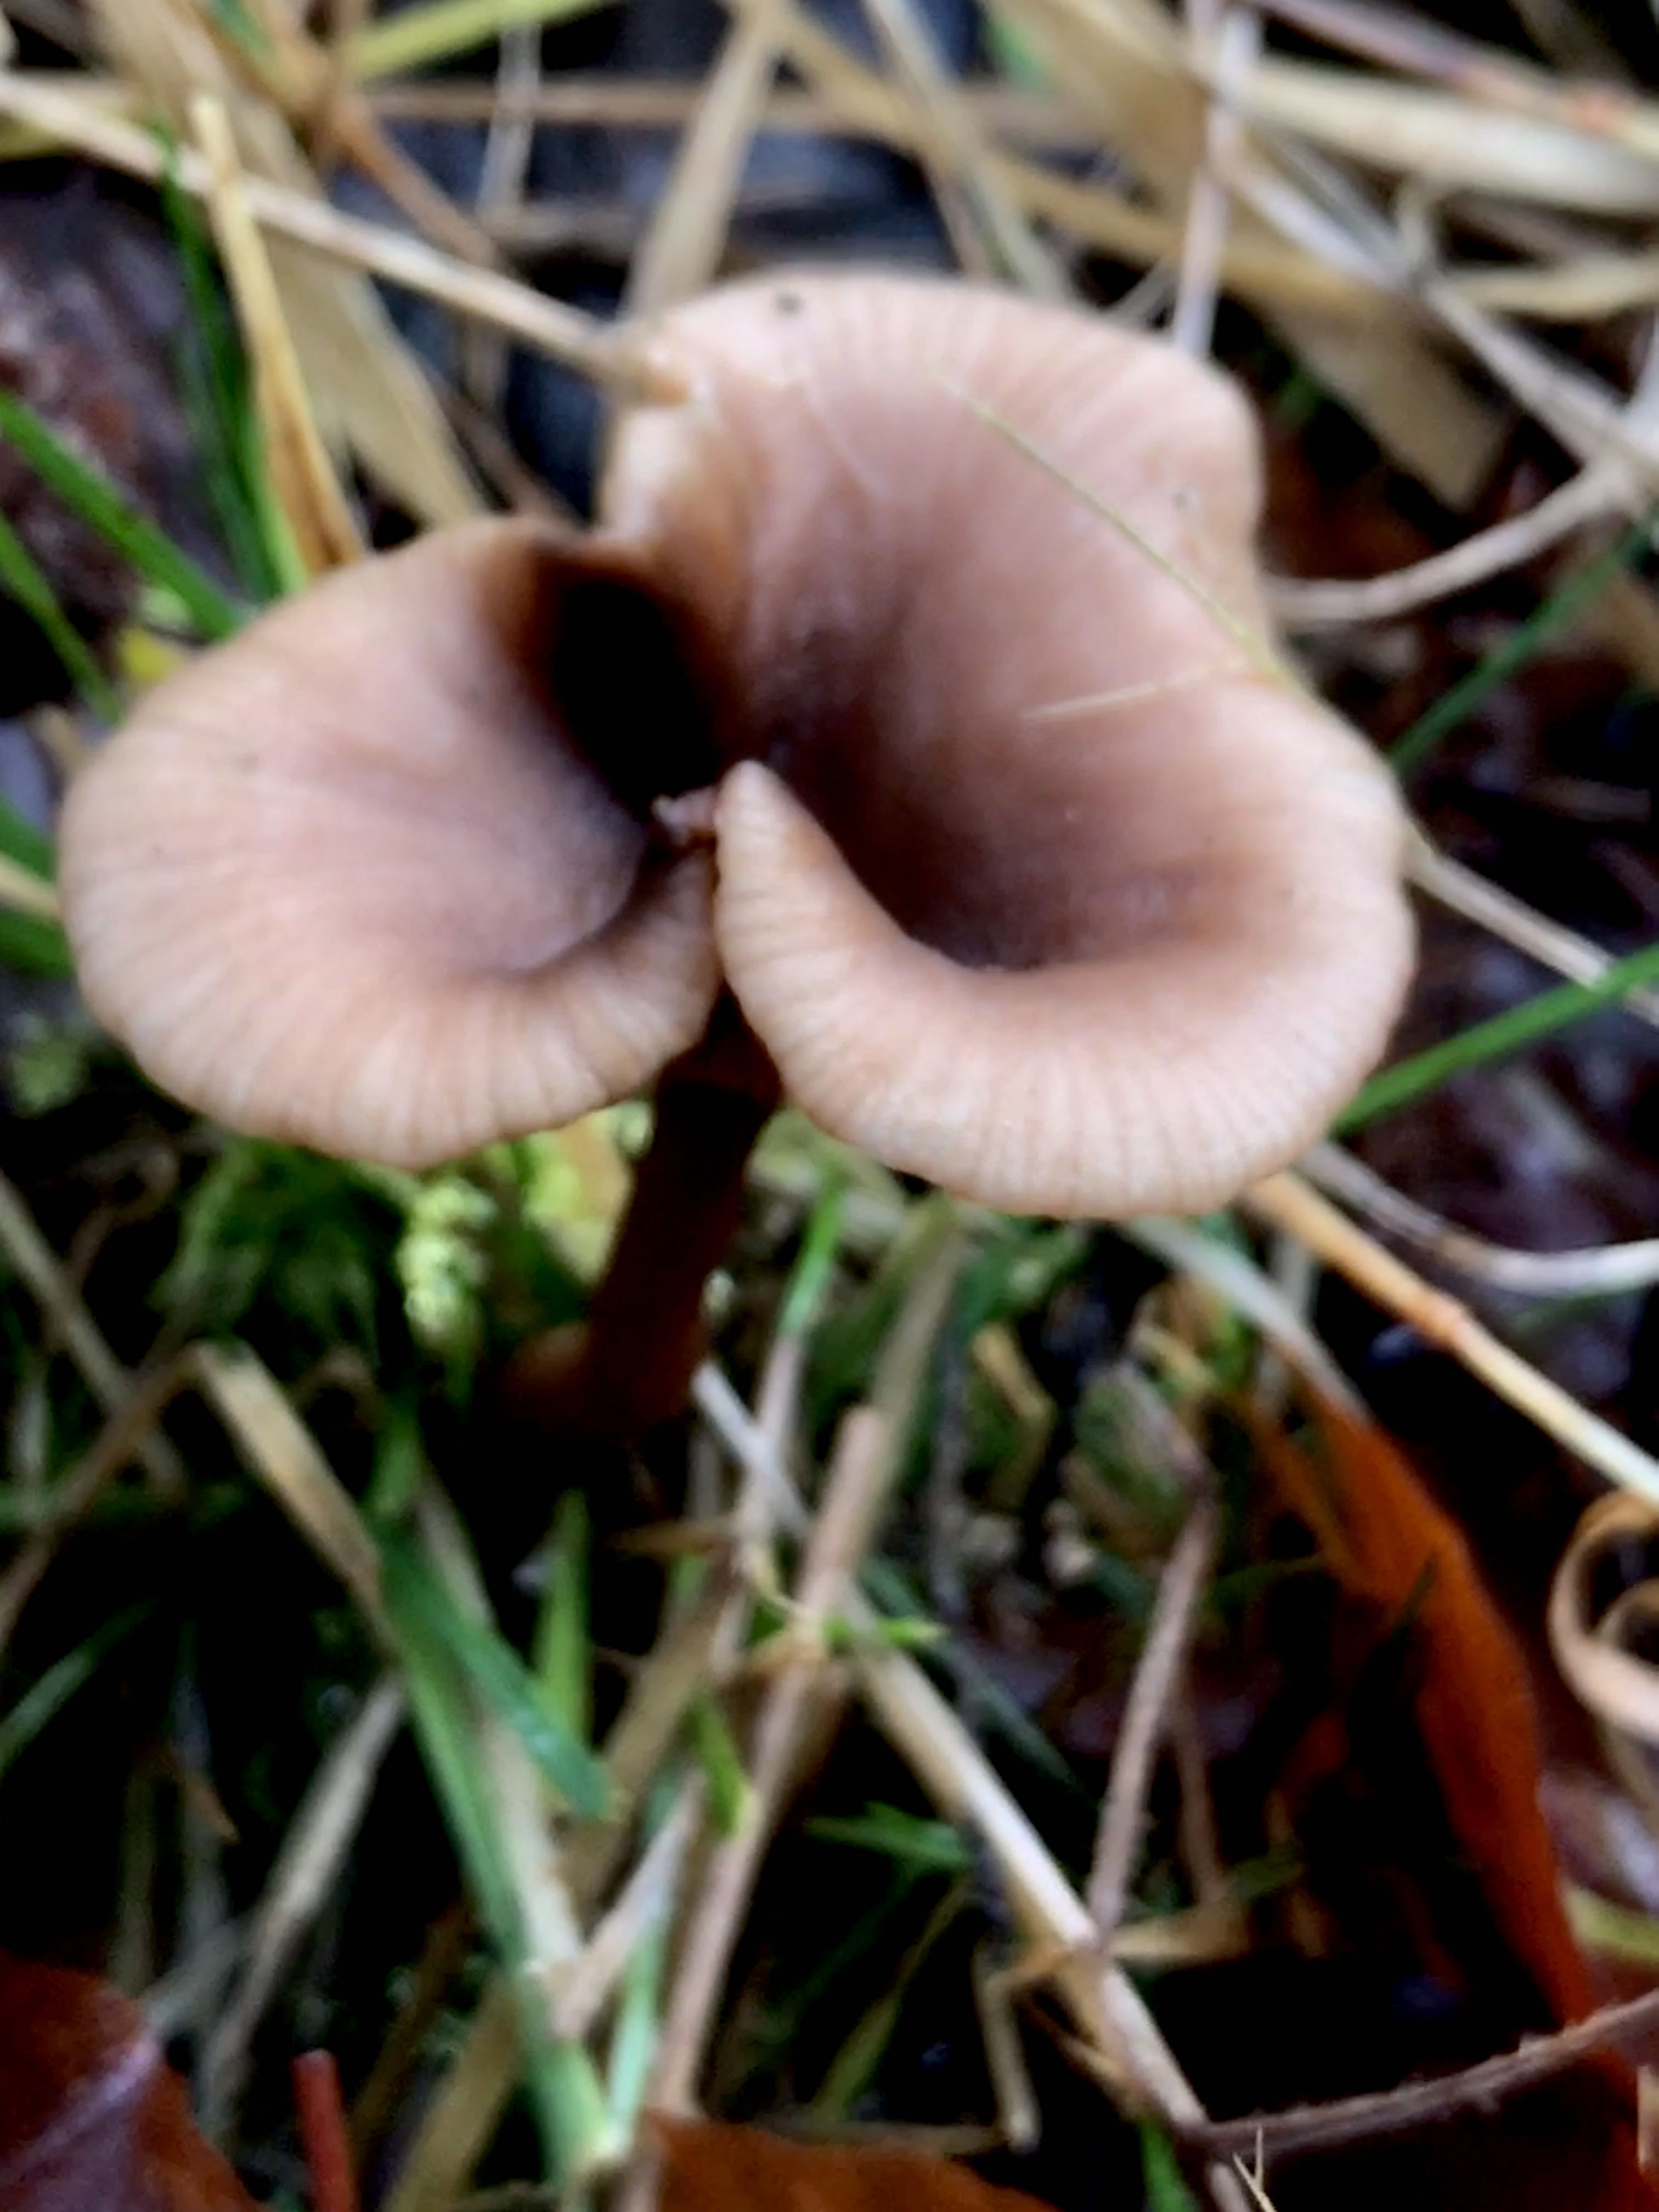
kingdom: Fungi
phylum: Basidiomycota
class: Agaricomycetes
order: Agaricales
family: Pseudoclitocybaceae
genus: Pseudoclitocybe
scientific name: Pseudoclitocybe cyathiformis
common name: almindelig bægertragthat
